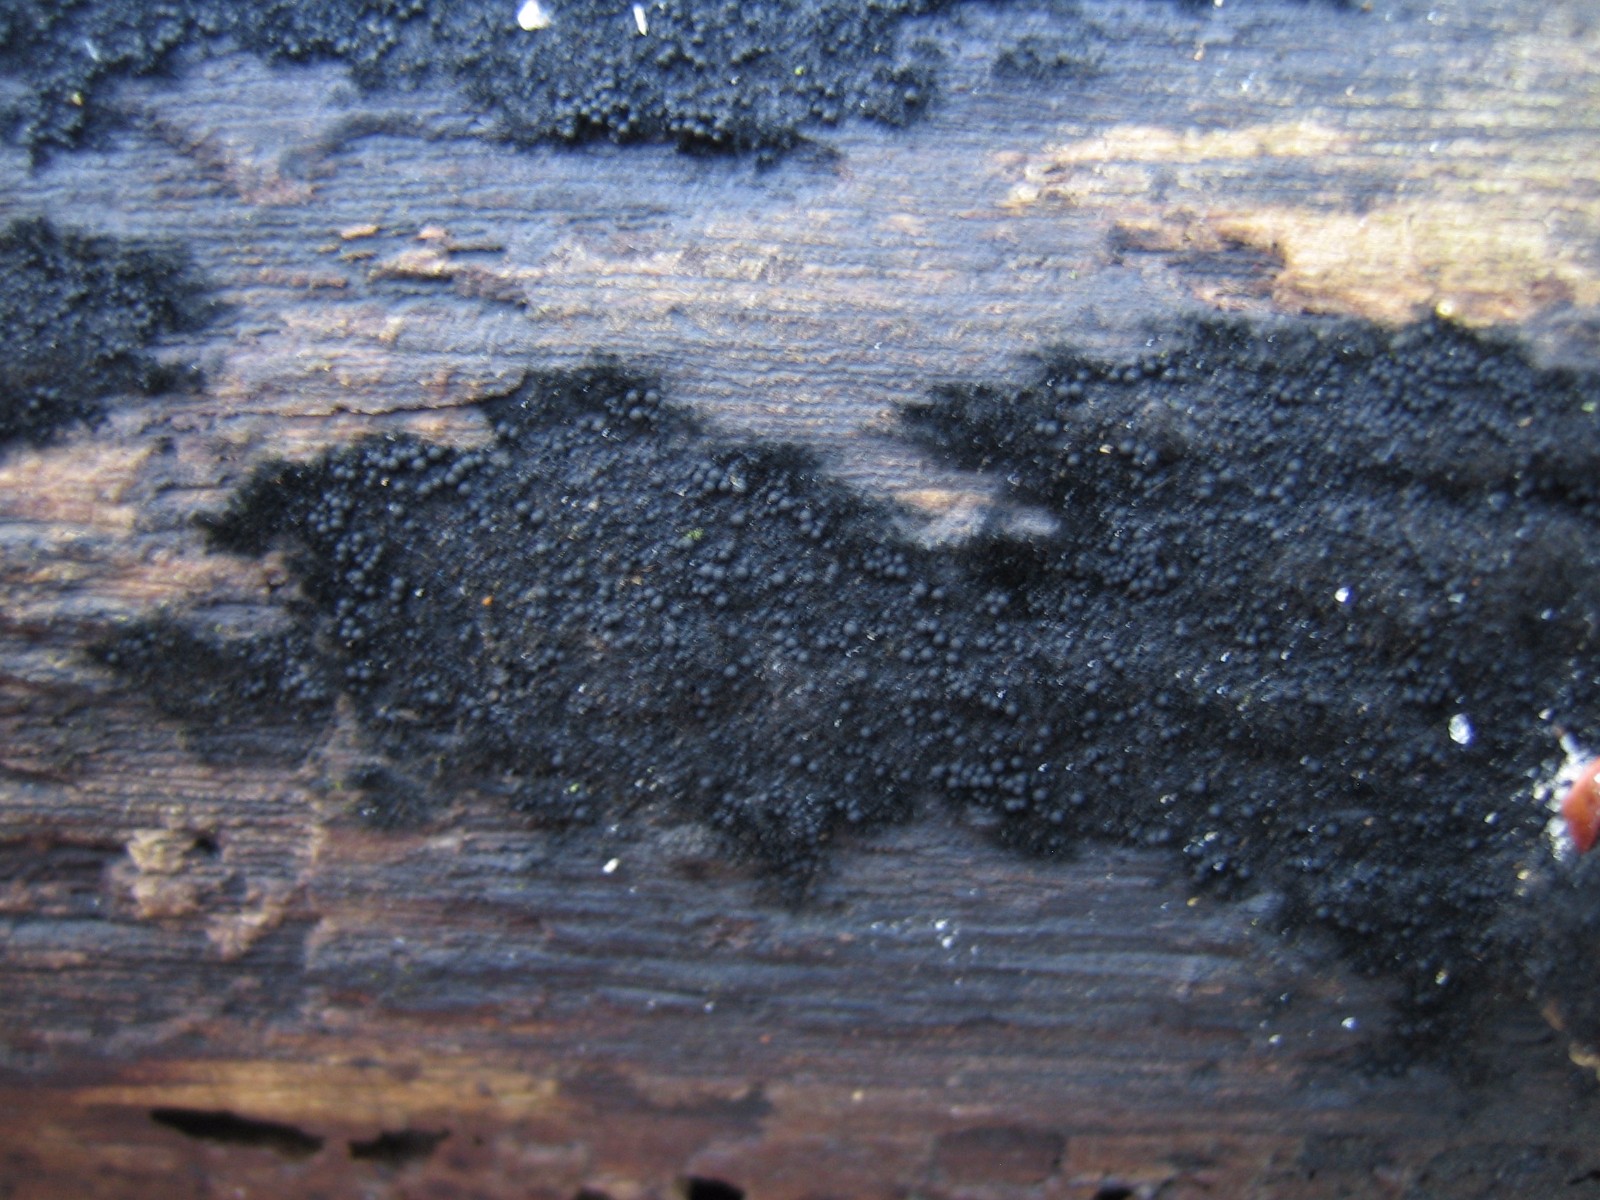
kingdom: Fungi
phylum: Ascomycota
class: Sordariomycetes
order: Coronophorales
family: Chaetosphaerellaceae
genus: Chaetosphaerella
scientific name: Chaetosphaerella phaeostroma
